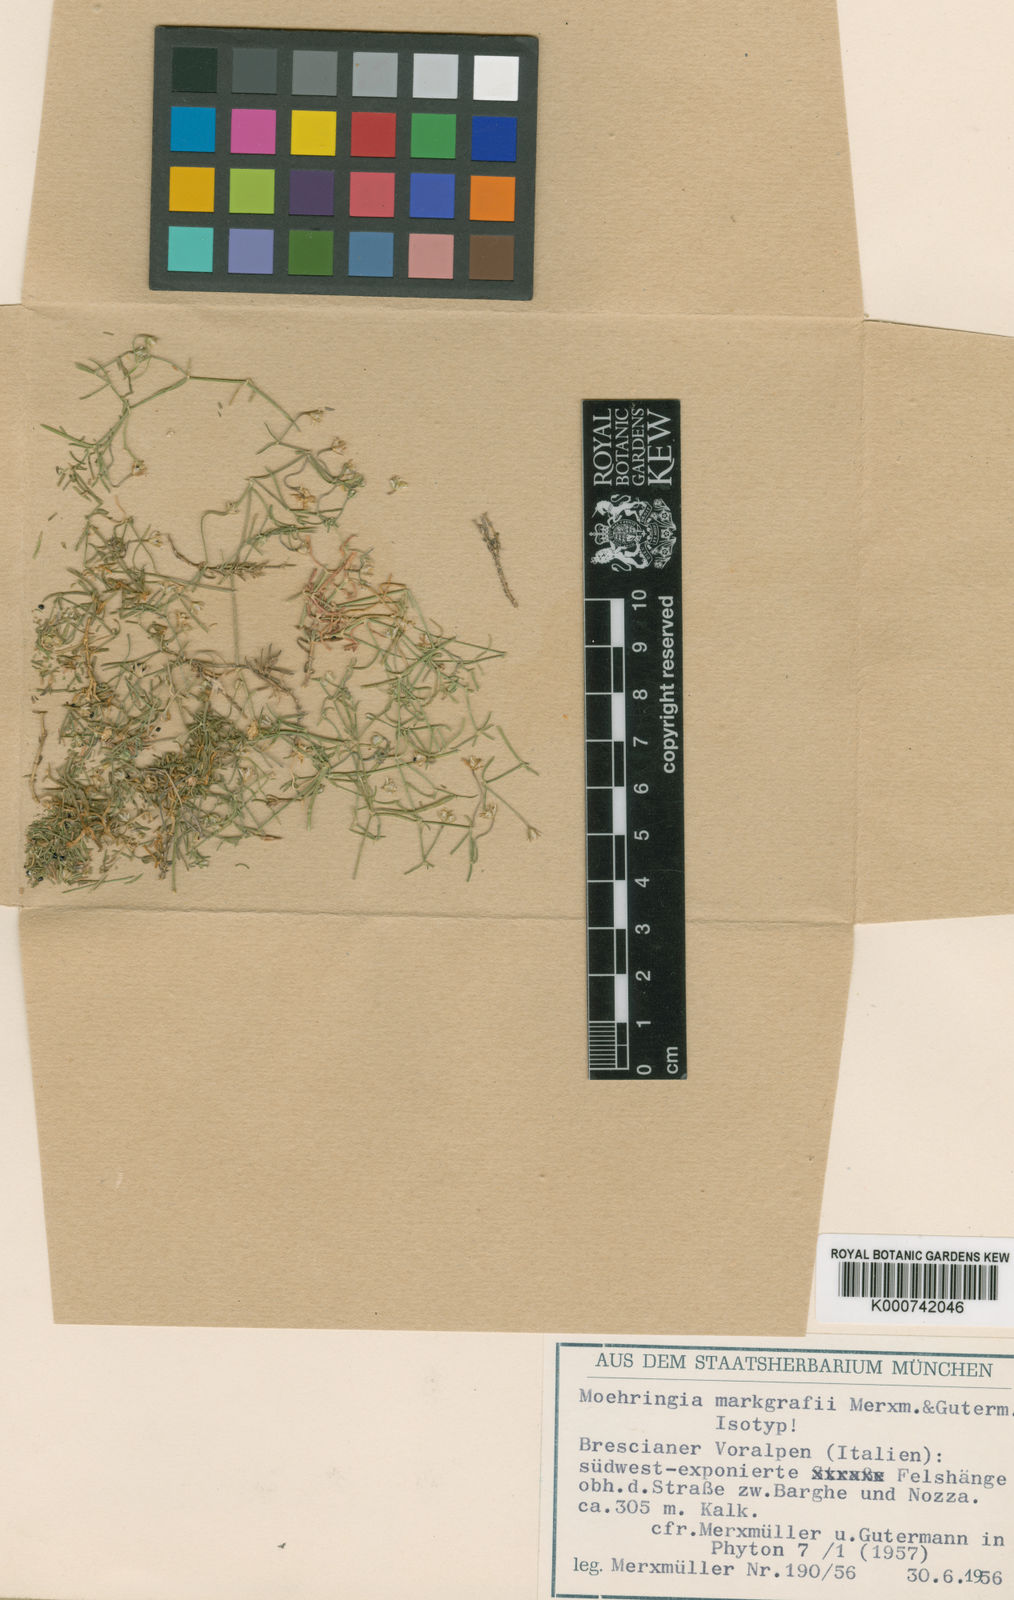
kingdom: Plantae
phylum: Tracheophyta
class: Magnoliopsida
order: Caryophyllales
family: Caryophyllaceae
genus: Moehringia
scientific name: Moehringia markgrafii
